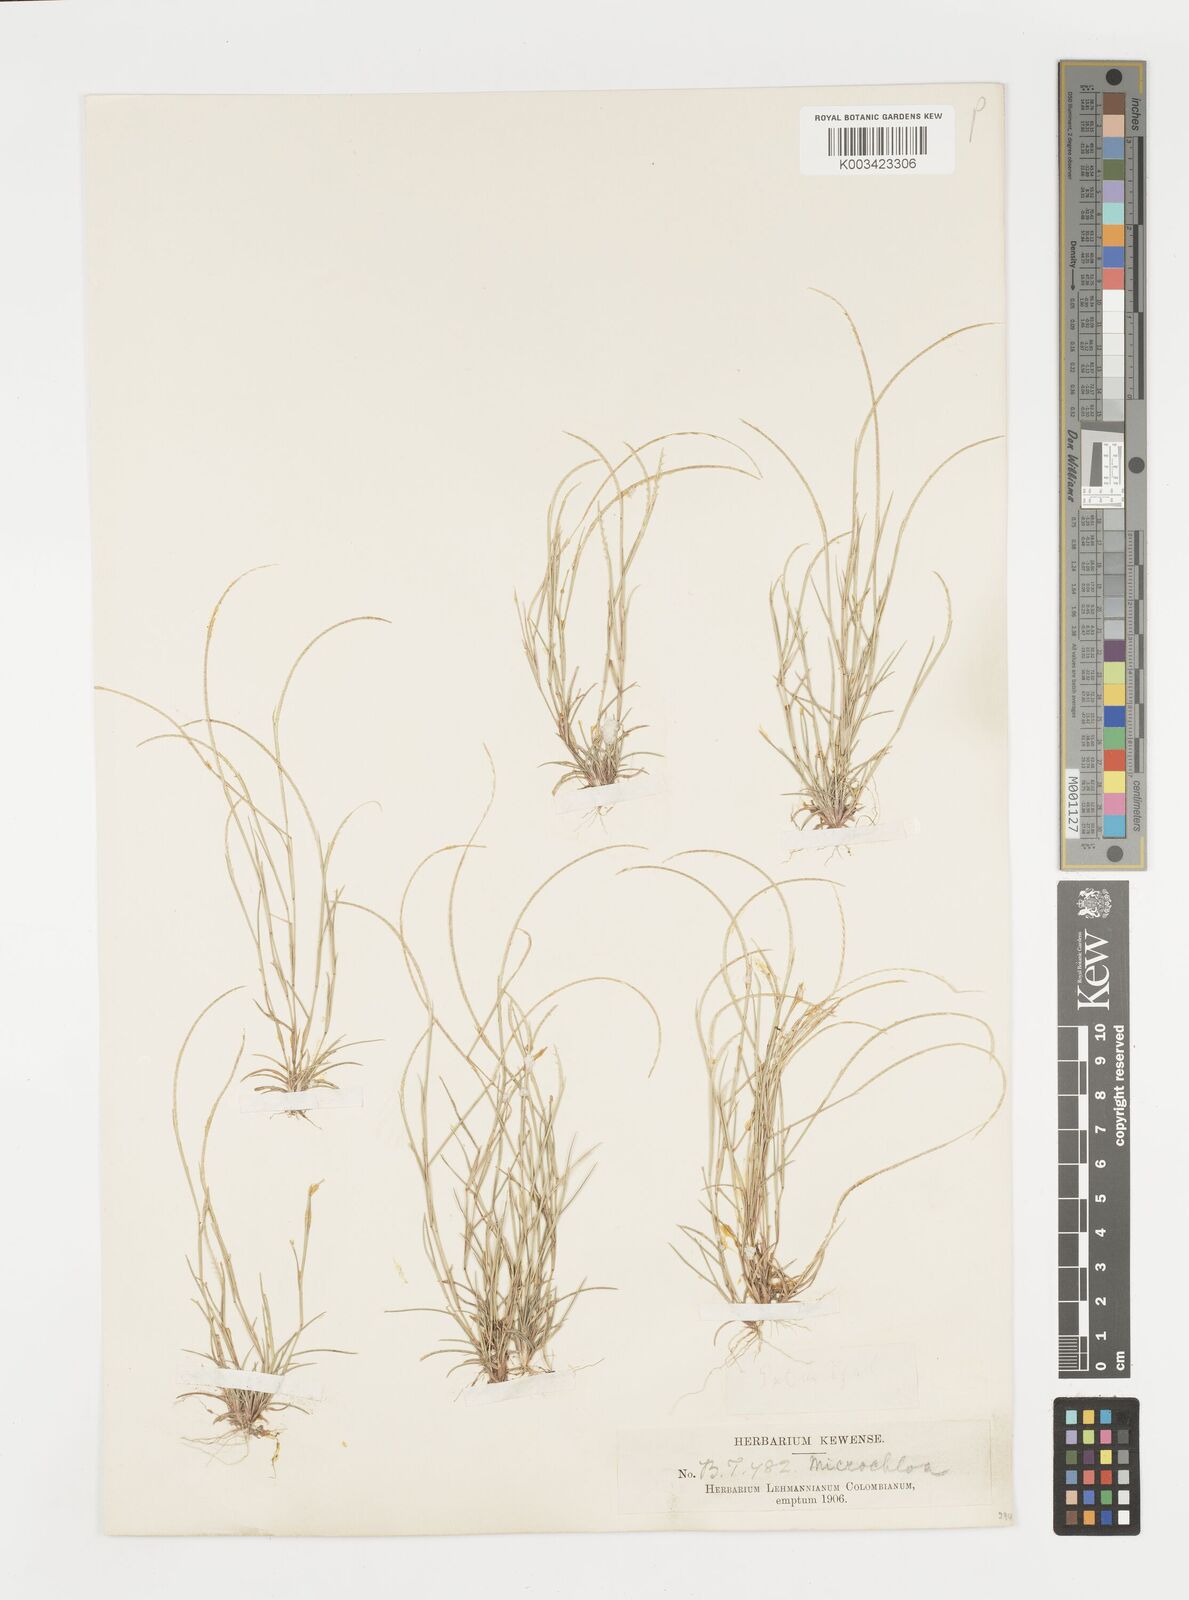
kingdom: Plantae
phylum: Tracheophyta
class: Liliopsida
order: Poales
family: Poaceae
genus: Microchloa
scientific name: Microchloa indica
